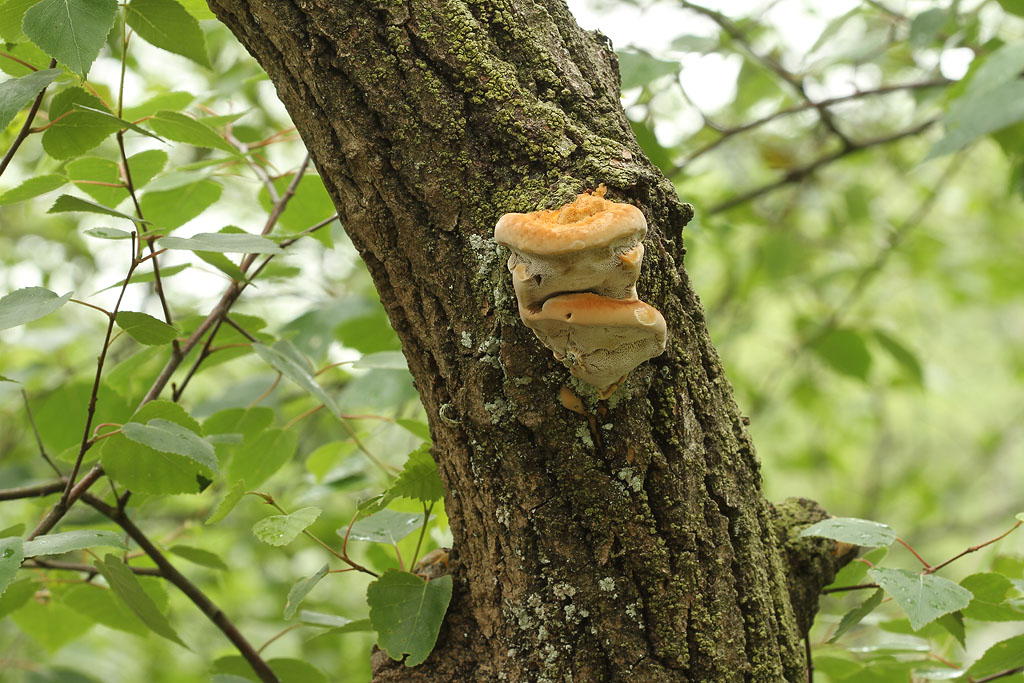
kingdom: Fungi
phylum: Basidiomycota
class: Agaricomycetes
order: Hymenochaetales
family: Hymenochaetaceae
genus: Inocutis
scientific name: Inocutis rheades
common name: ræve-spejlporesvamp
